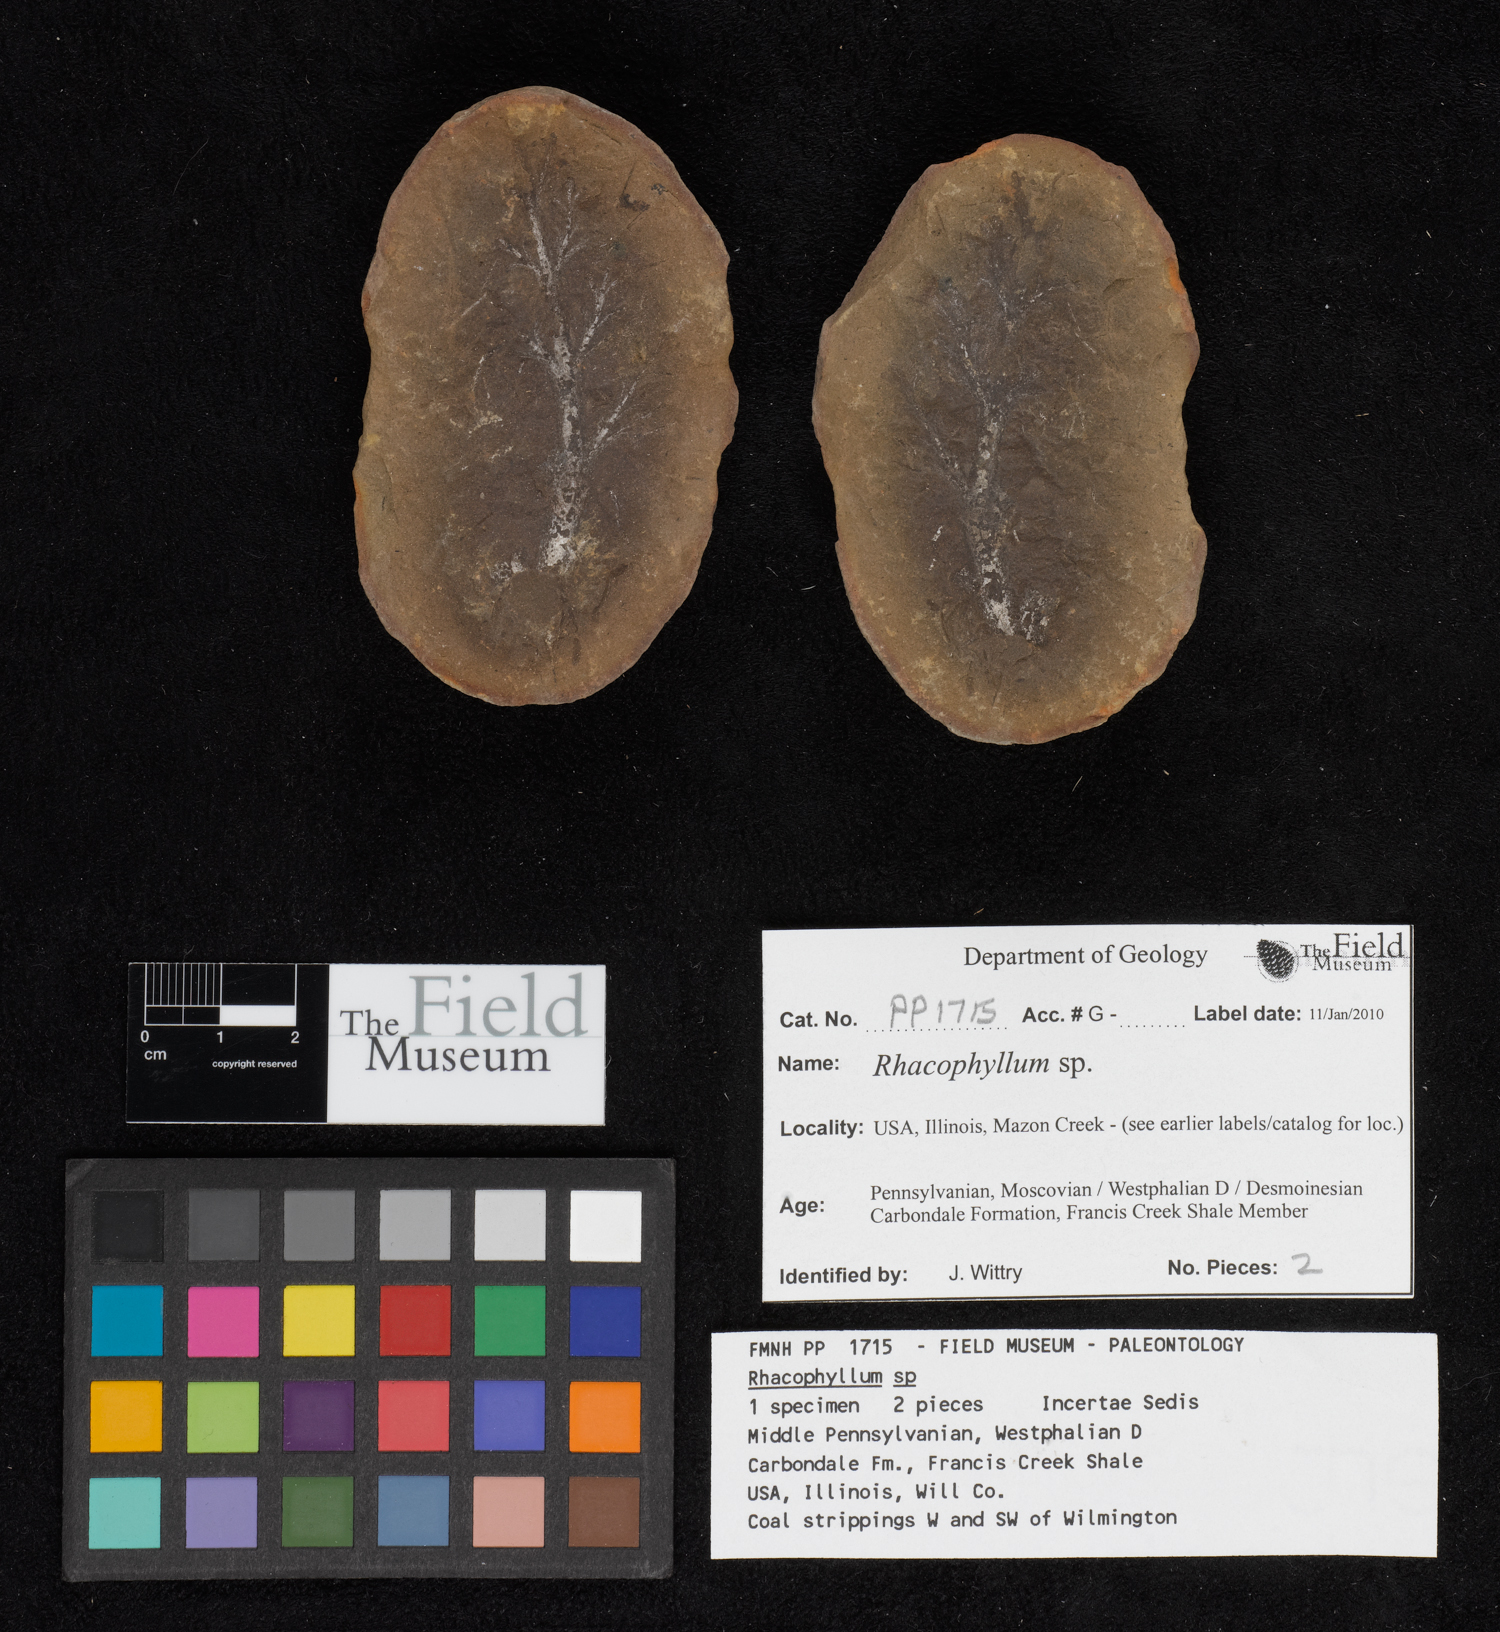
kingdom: Plantae
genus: Rhacophyllum
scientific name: Rhacophyllum
